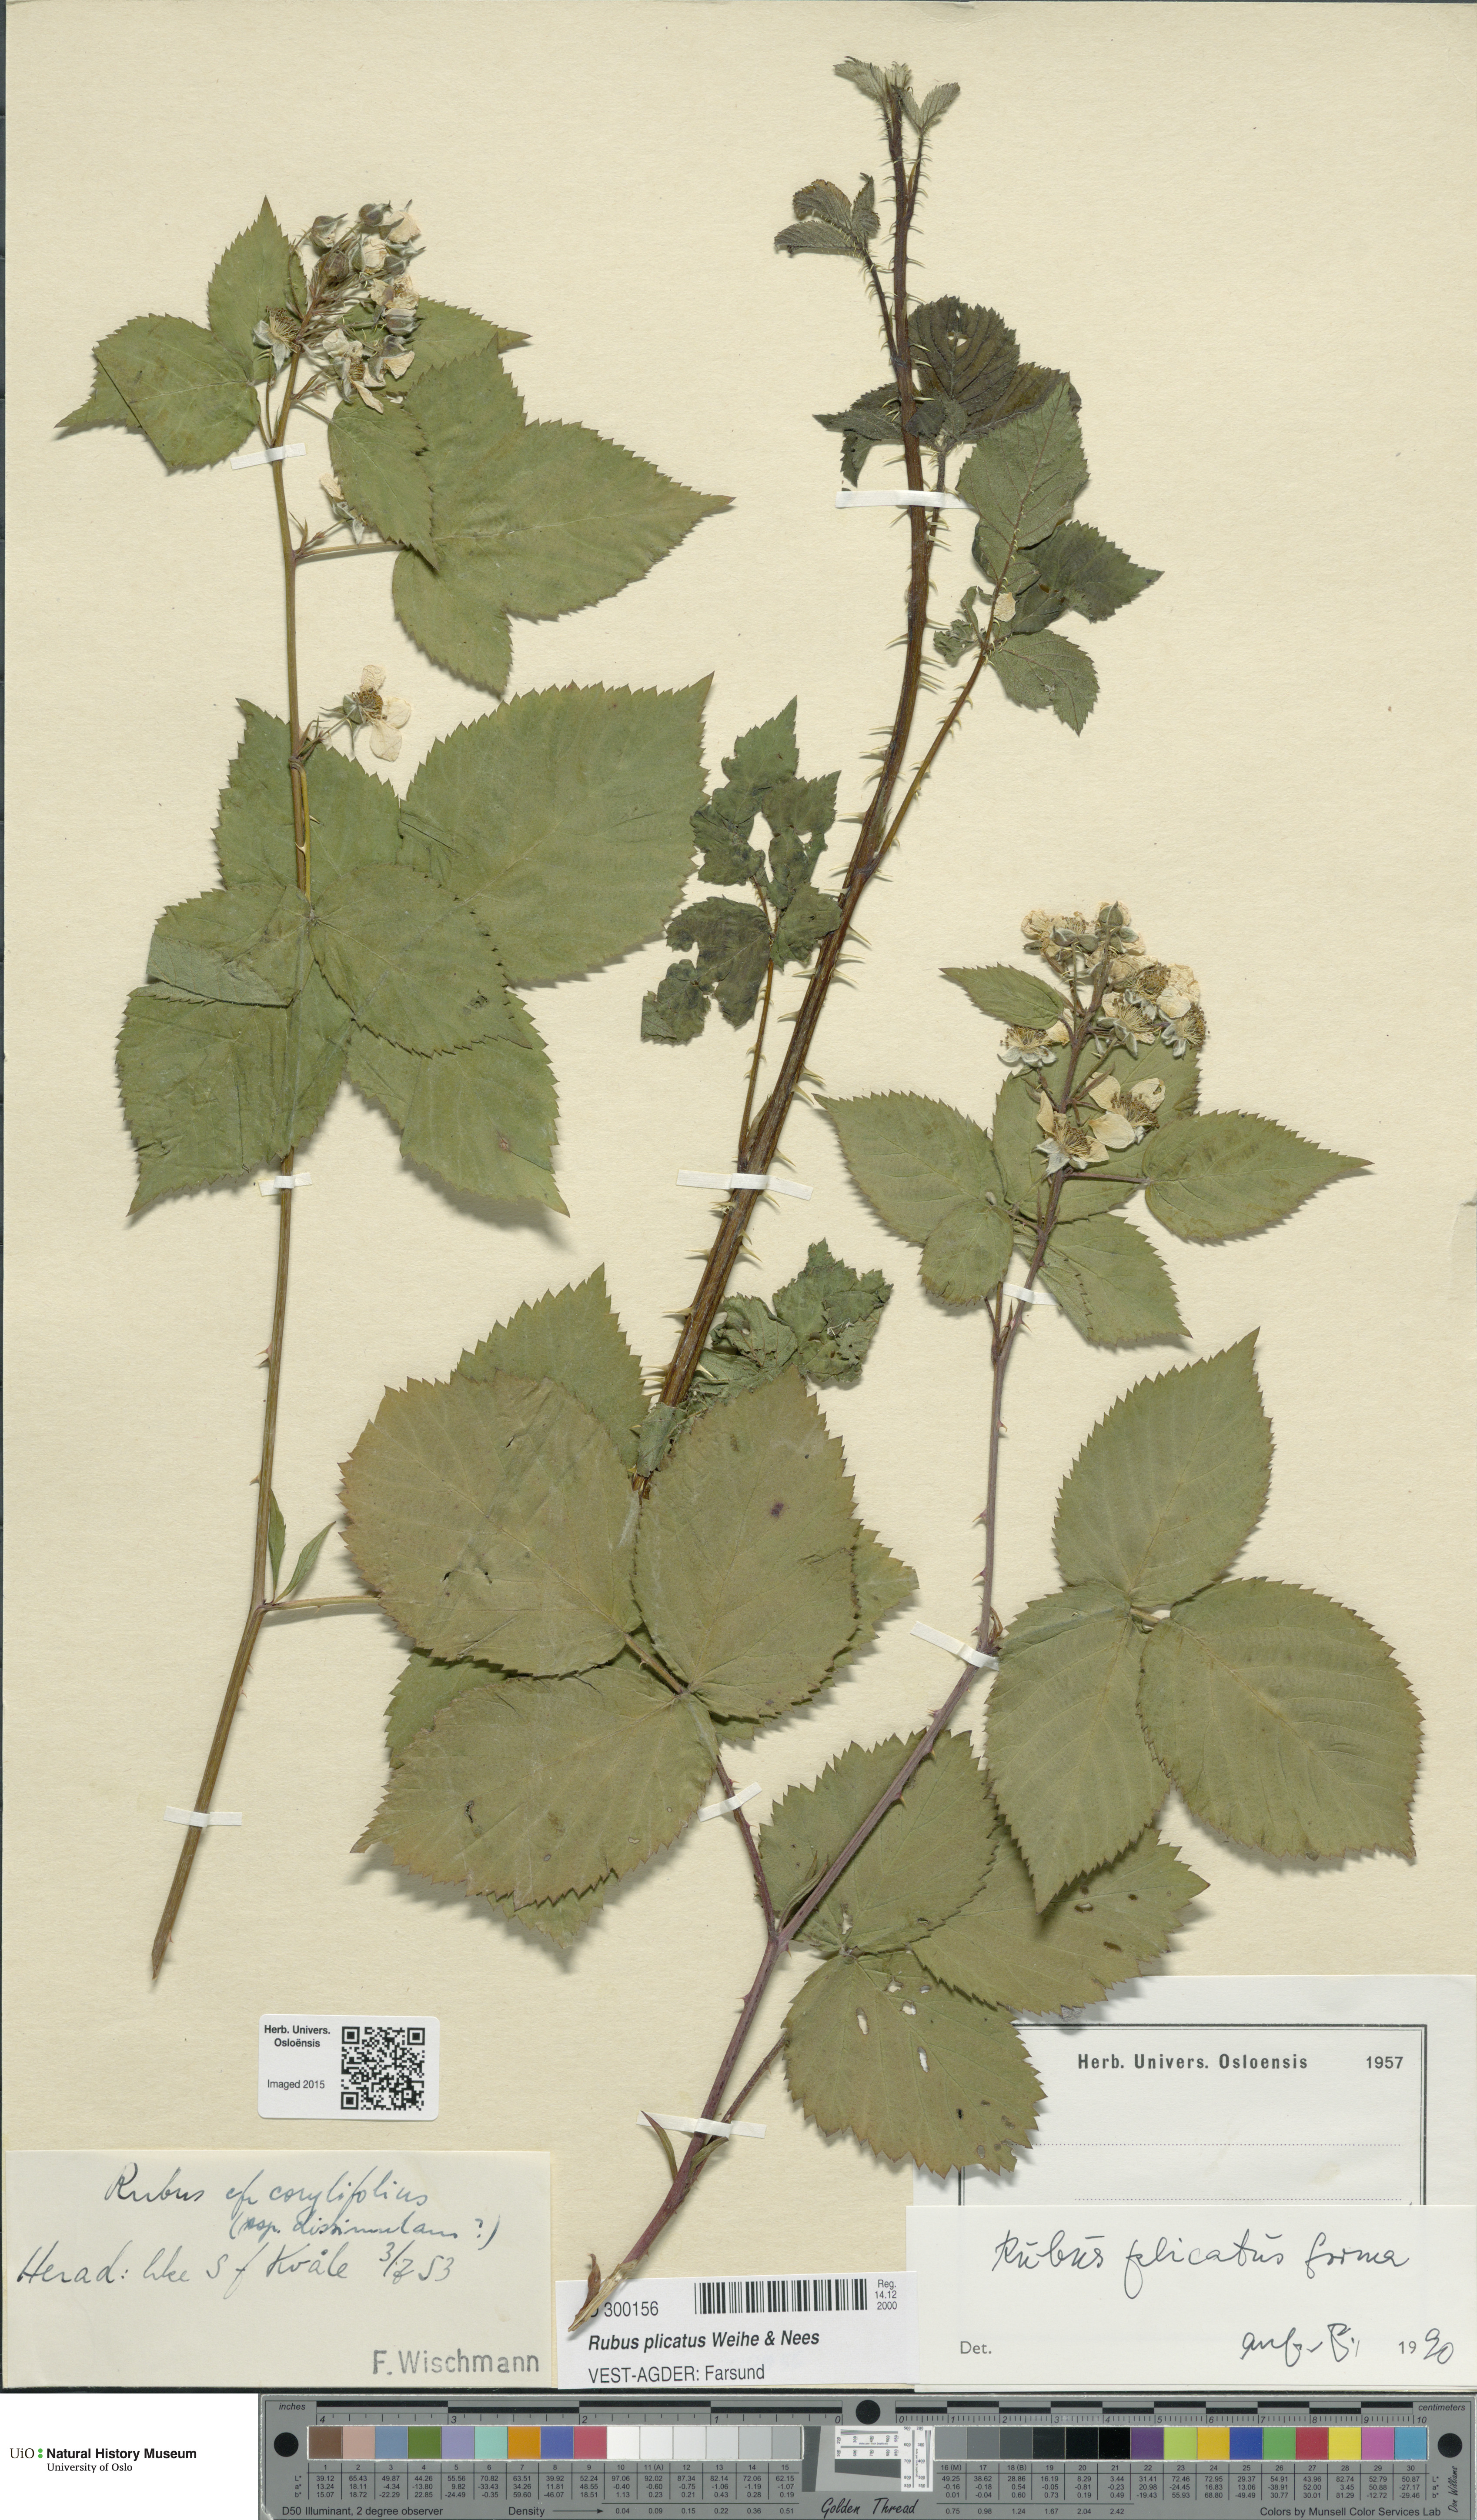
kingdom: Plantae
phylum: Tracheophyta
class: Magnoliopsida
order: Rosales
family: Rosaceae
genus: Rubus
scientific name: Rubus fruticosus
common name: Blackberry, bramble
